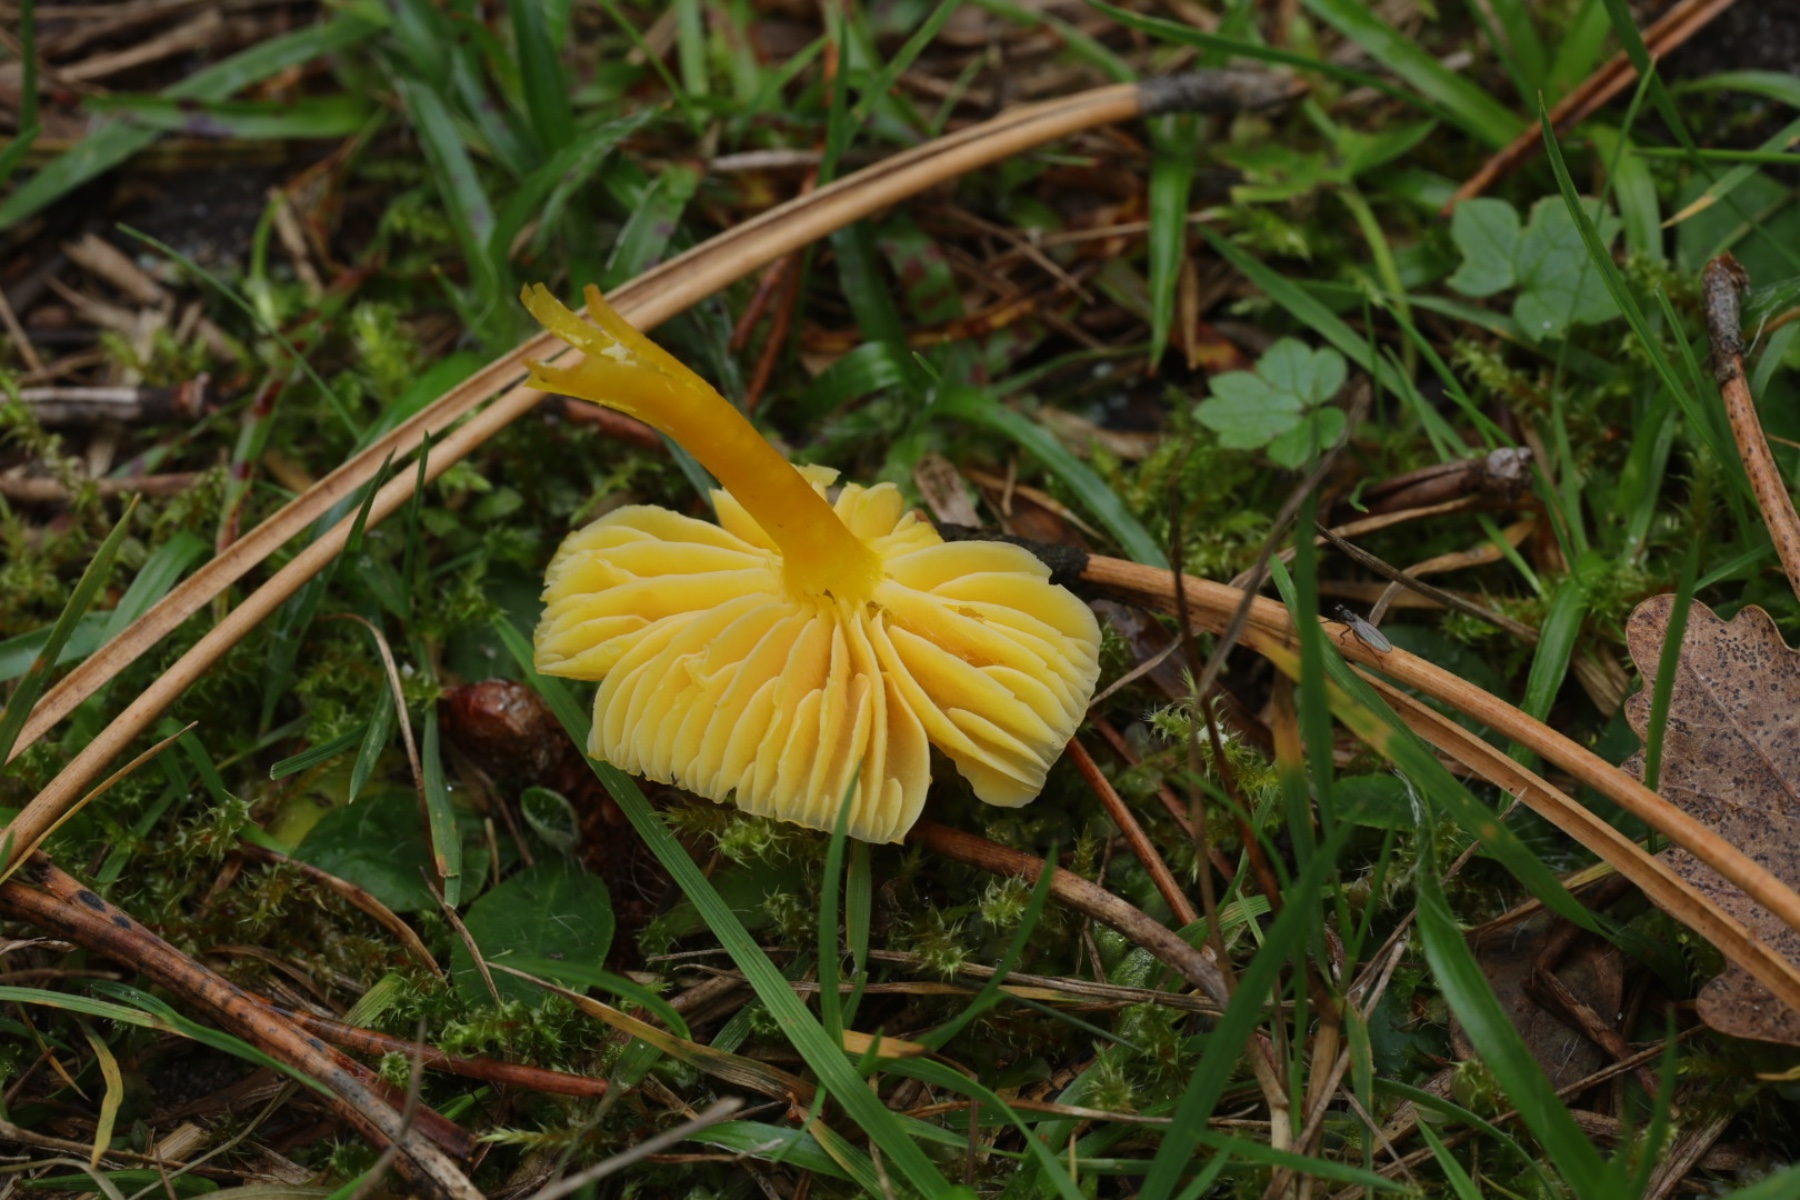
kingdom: Fungi
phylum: Basidiomycota
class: Agaricomycetes
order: Agaricales
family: Hygrophoraceae
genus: Hygrocybe
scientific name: Hygrocybe ceracea
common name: voksgul vokshat
